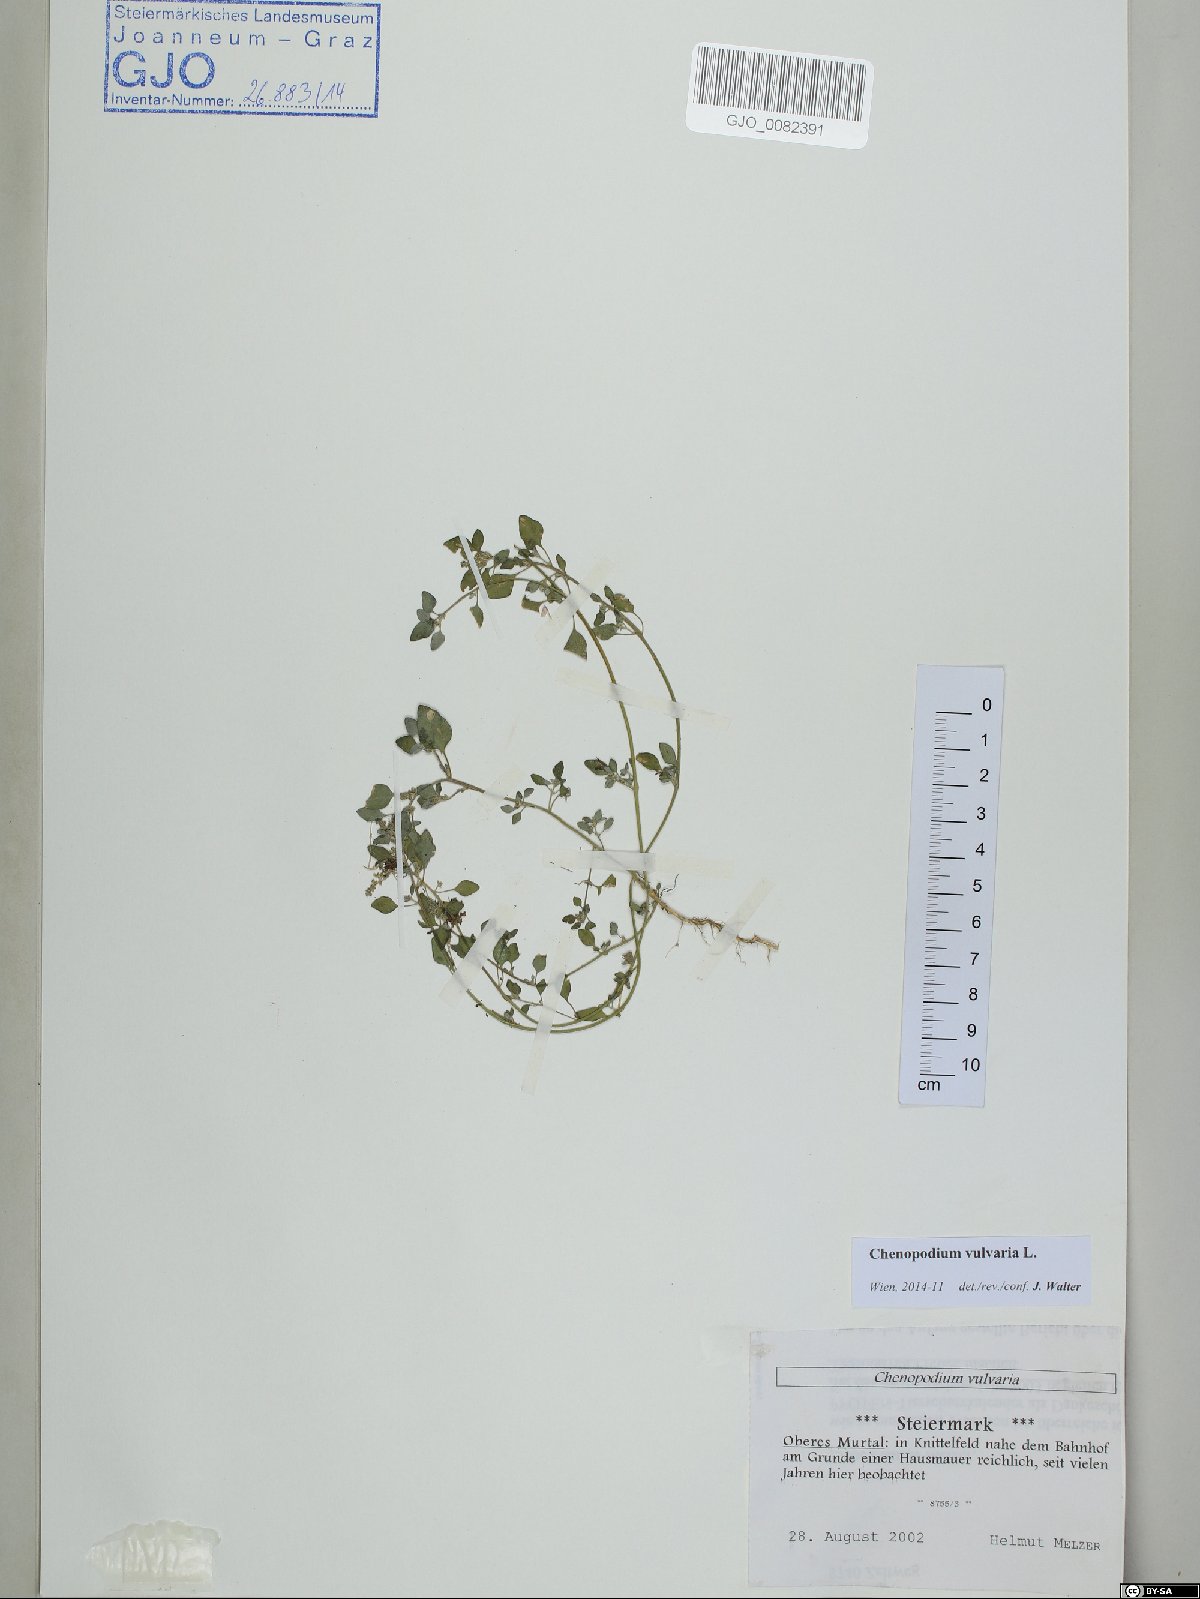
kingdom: Plantae
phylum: Tracheophyta
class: Magnoliopsida
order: Caryophyllales
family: Amaranthaceae
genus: Chenopodium
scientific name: Chenopodium vulvaria
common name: Stinking goosefoot
